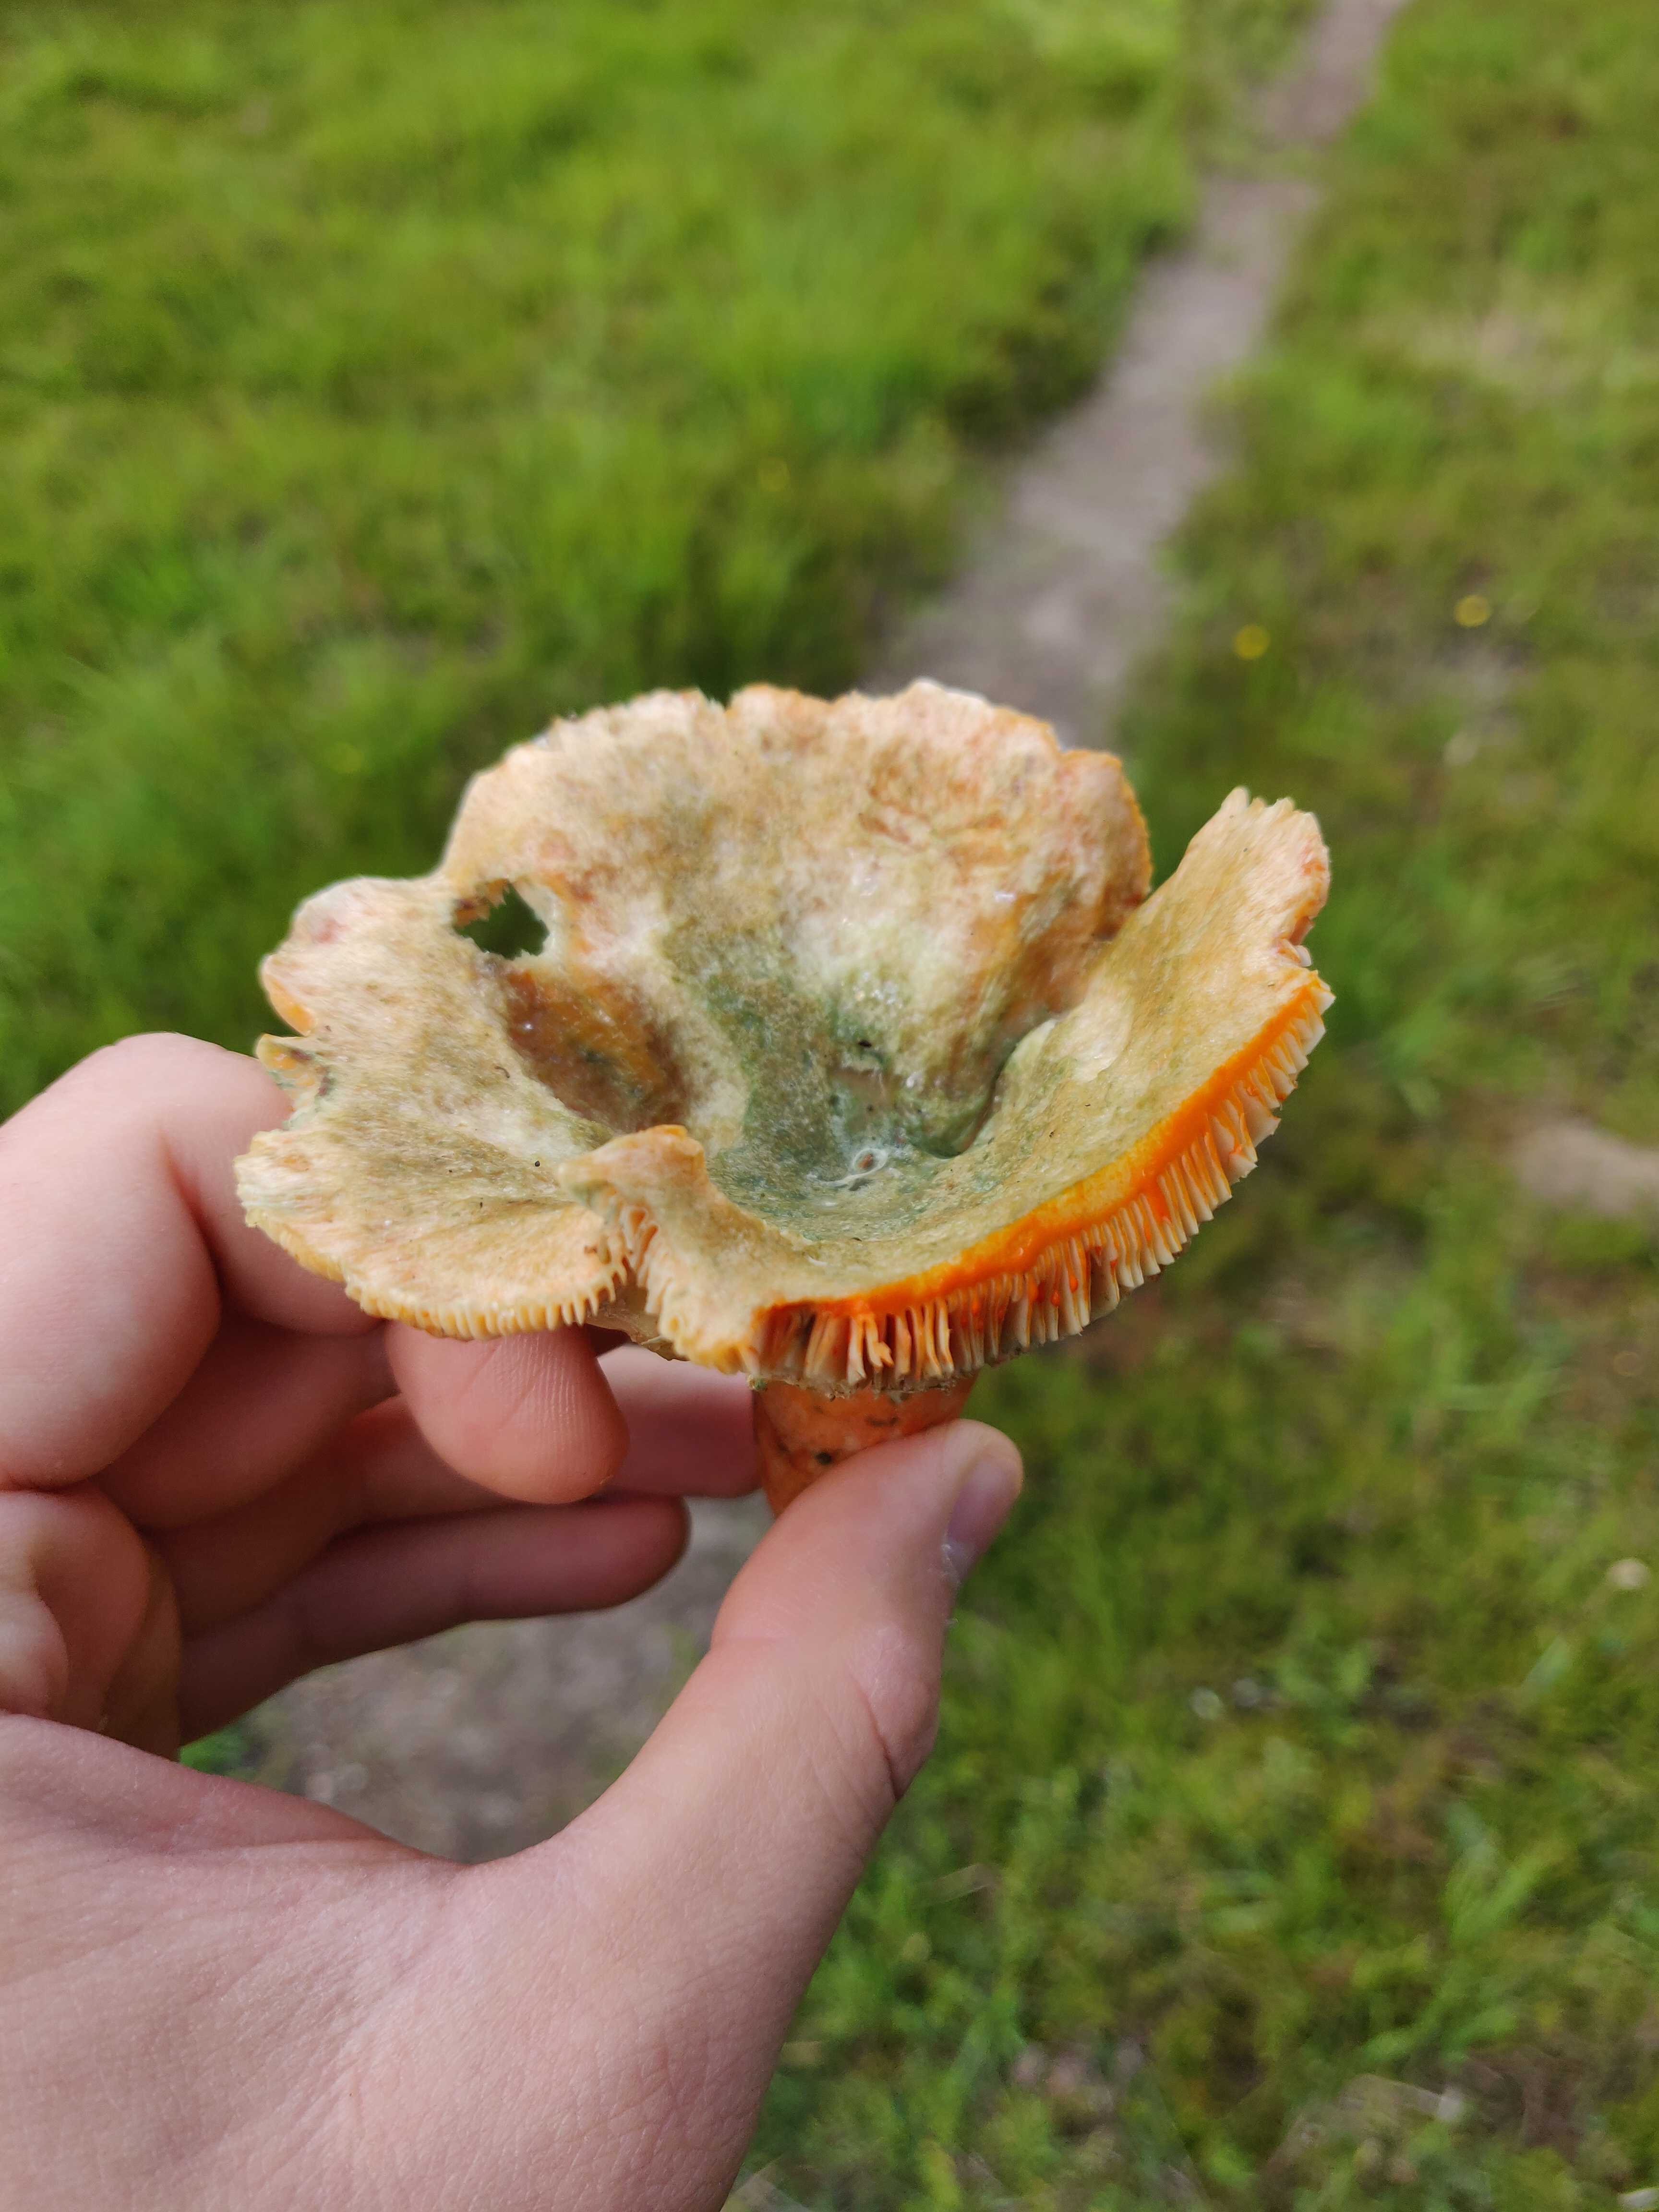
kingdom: Fungi
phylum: Basidiomycota
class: Agaricomycetes
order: Russulales
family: Russulaceae
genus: Lactarius
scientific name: Lactarius deterrimus
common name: gran-mælkehat
